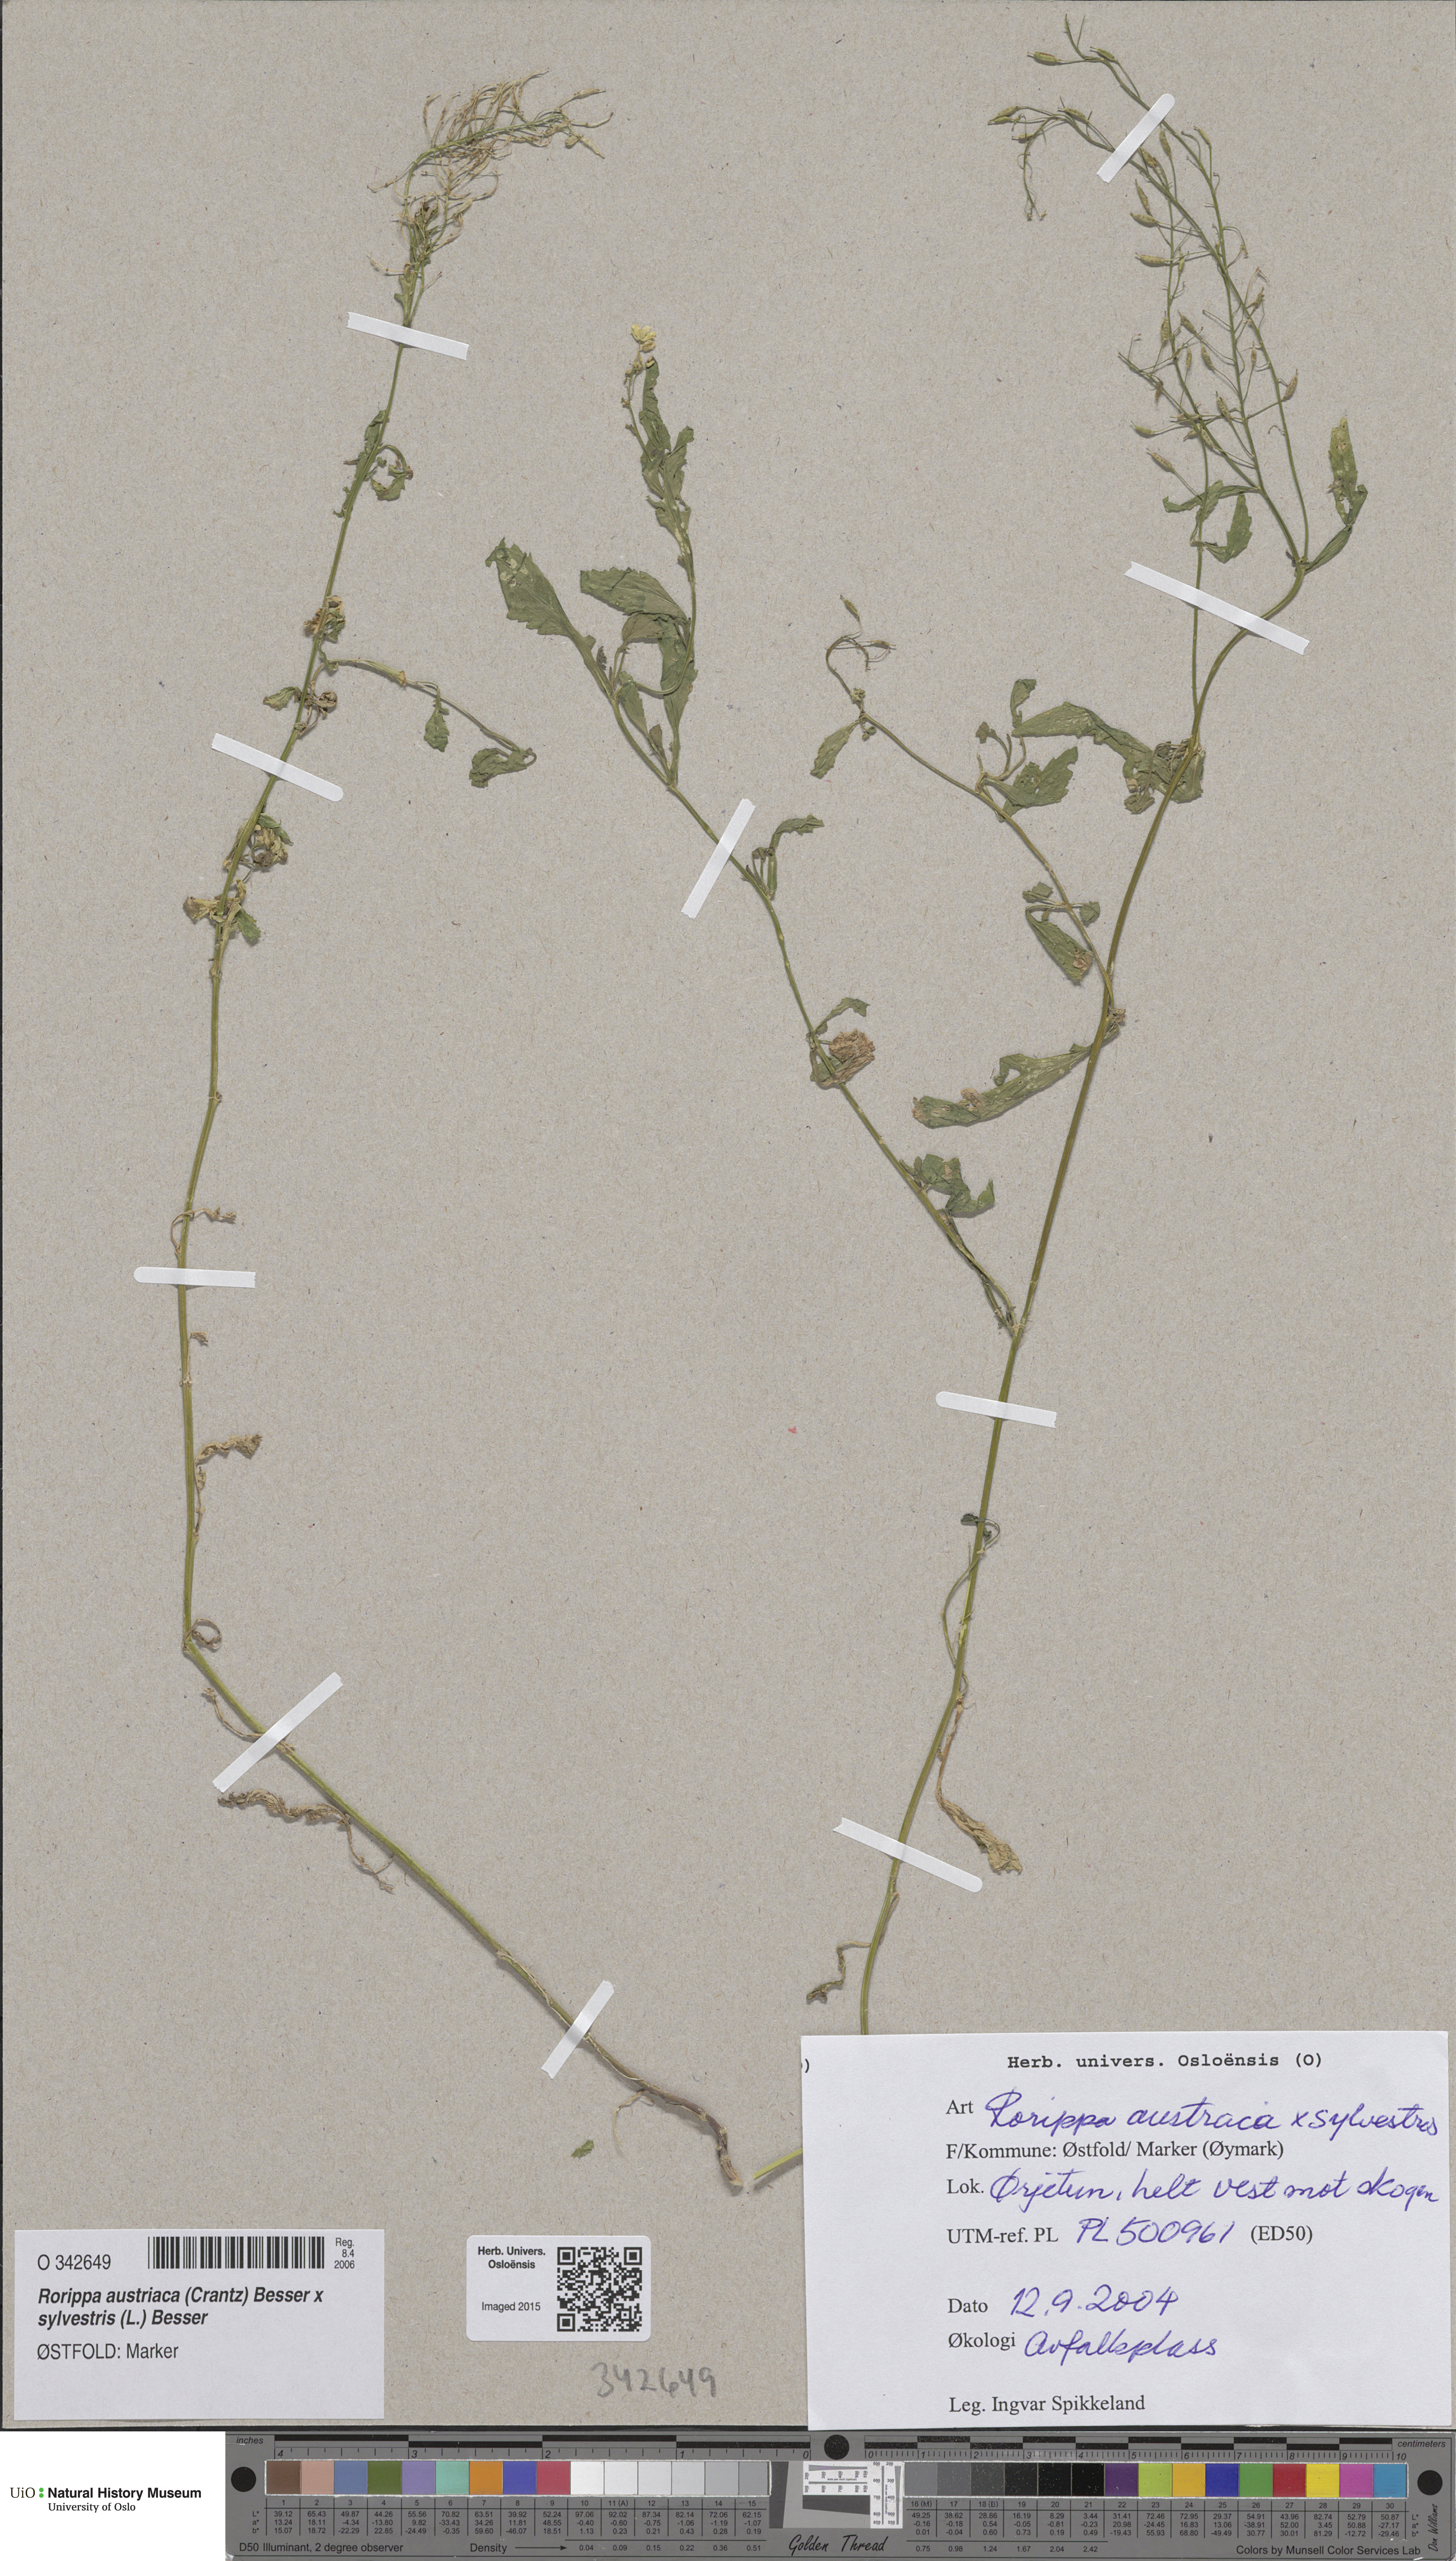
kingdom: Plantae
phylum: Tracheophyta
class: Magnoliopsida
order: Brassicales
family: Brassicaceae
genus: Rorippa
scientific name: Rorippa
